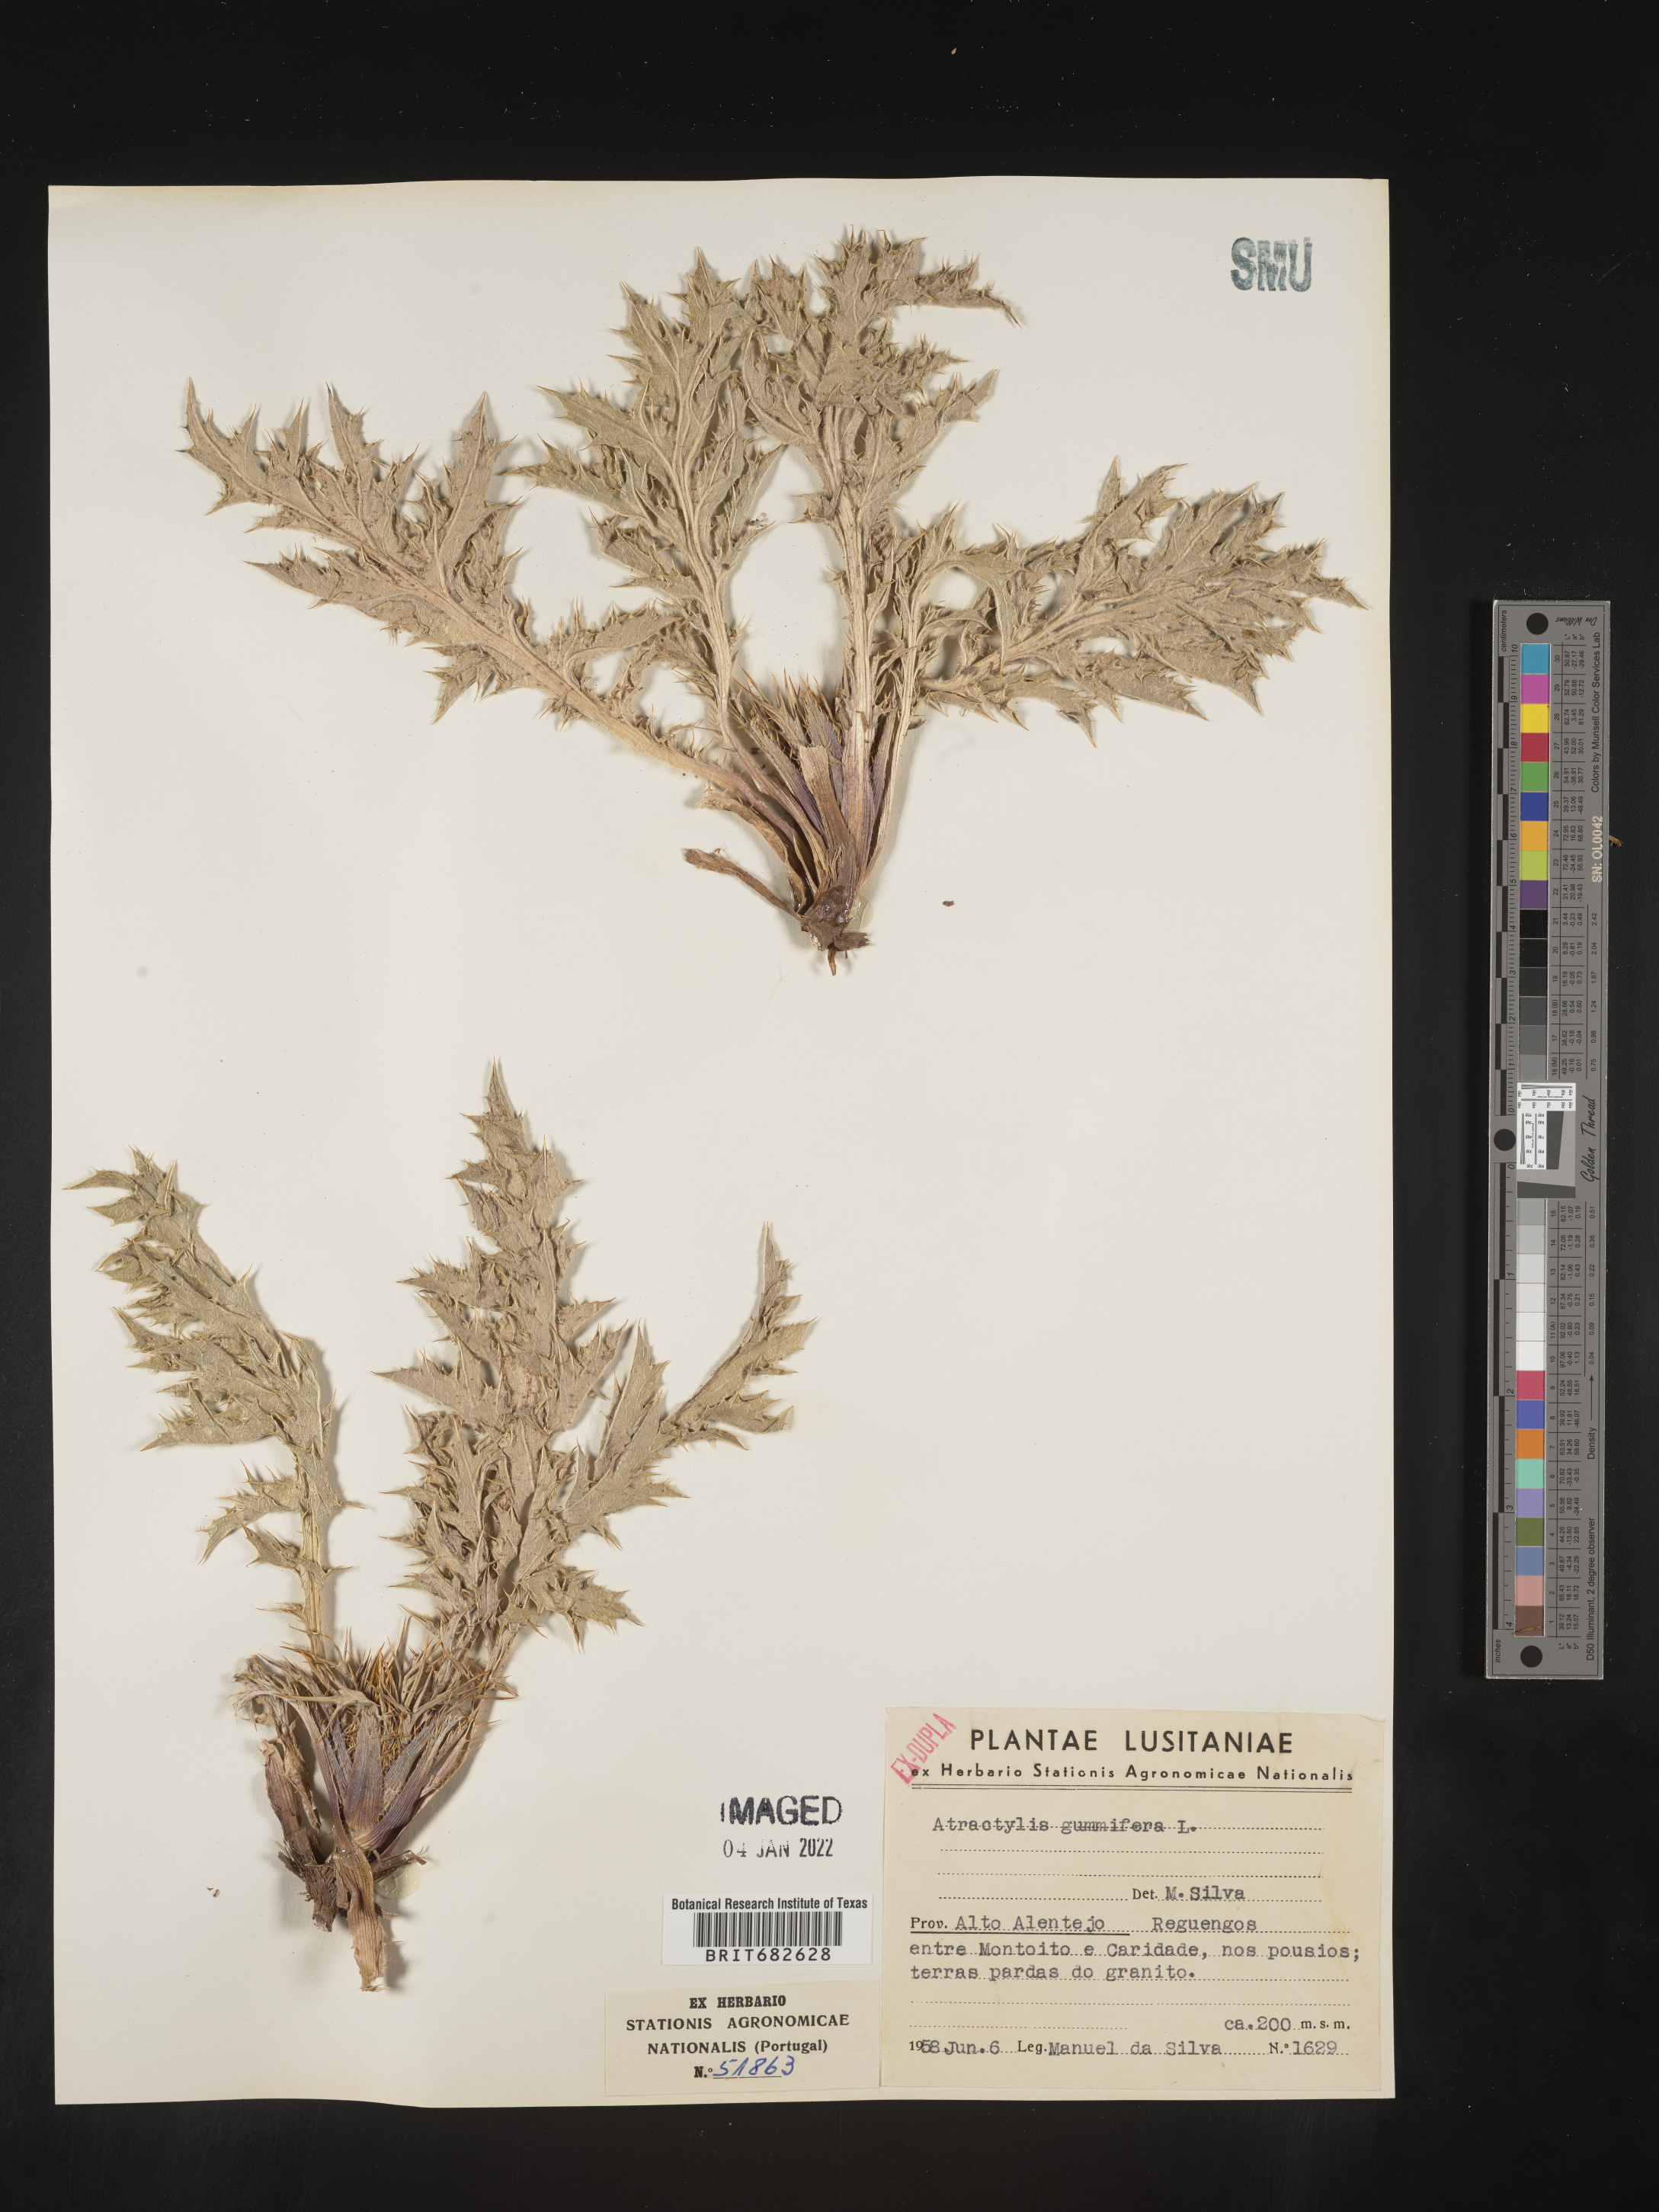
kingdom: Plantae
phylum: Tracheophyta
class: Magnoliopsida
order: Asterales
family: Asteraceae
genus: Atractylis
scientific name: Atractylis
